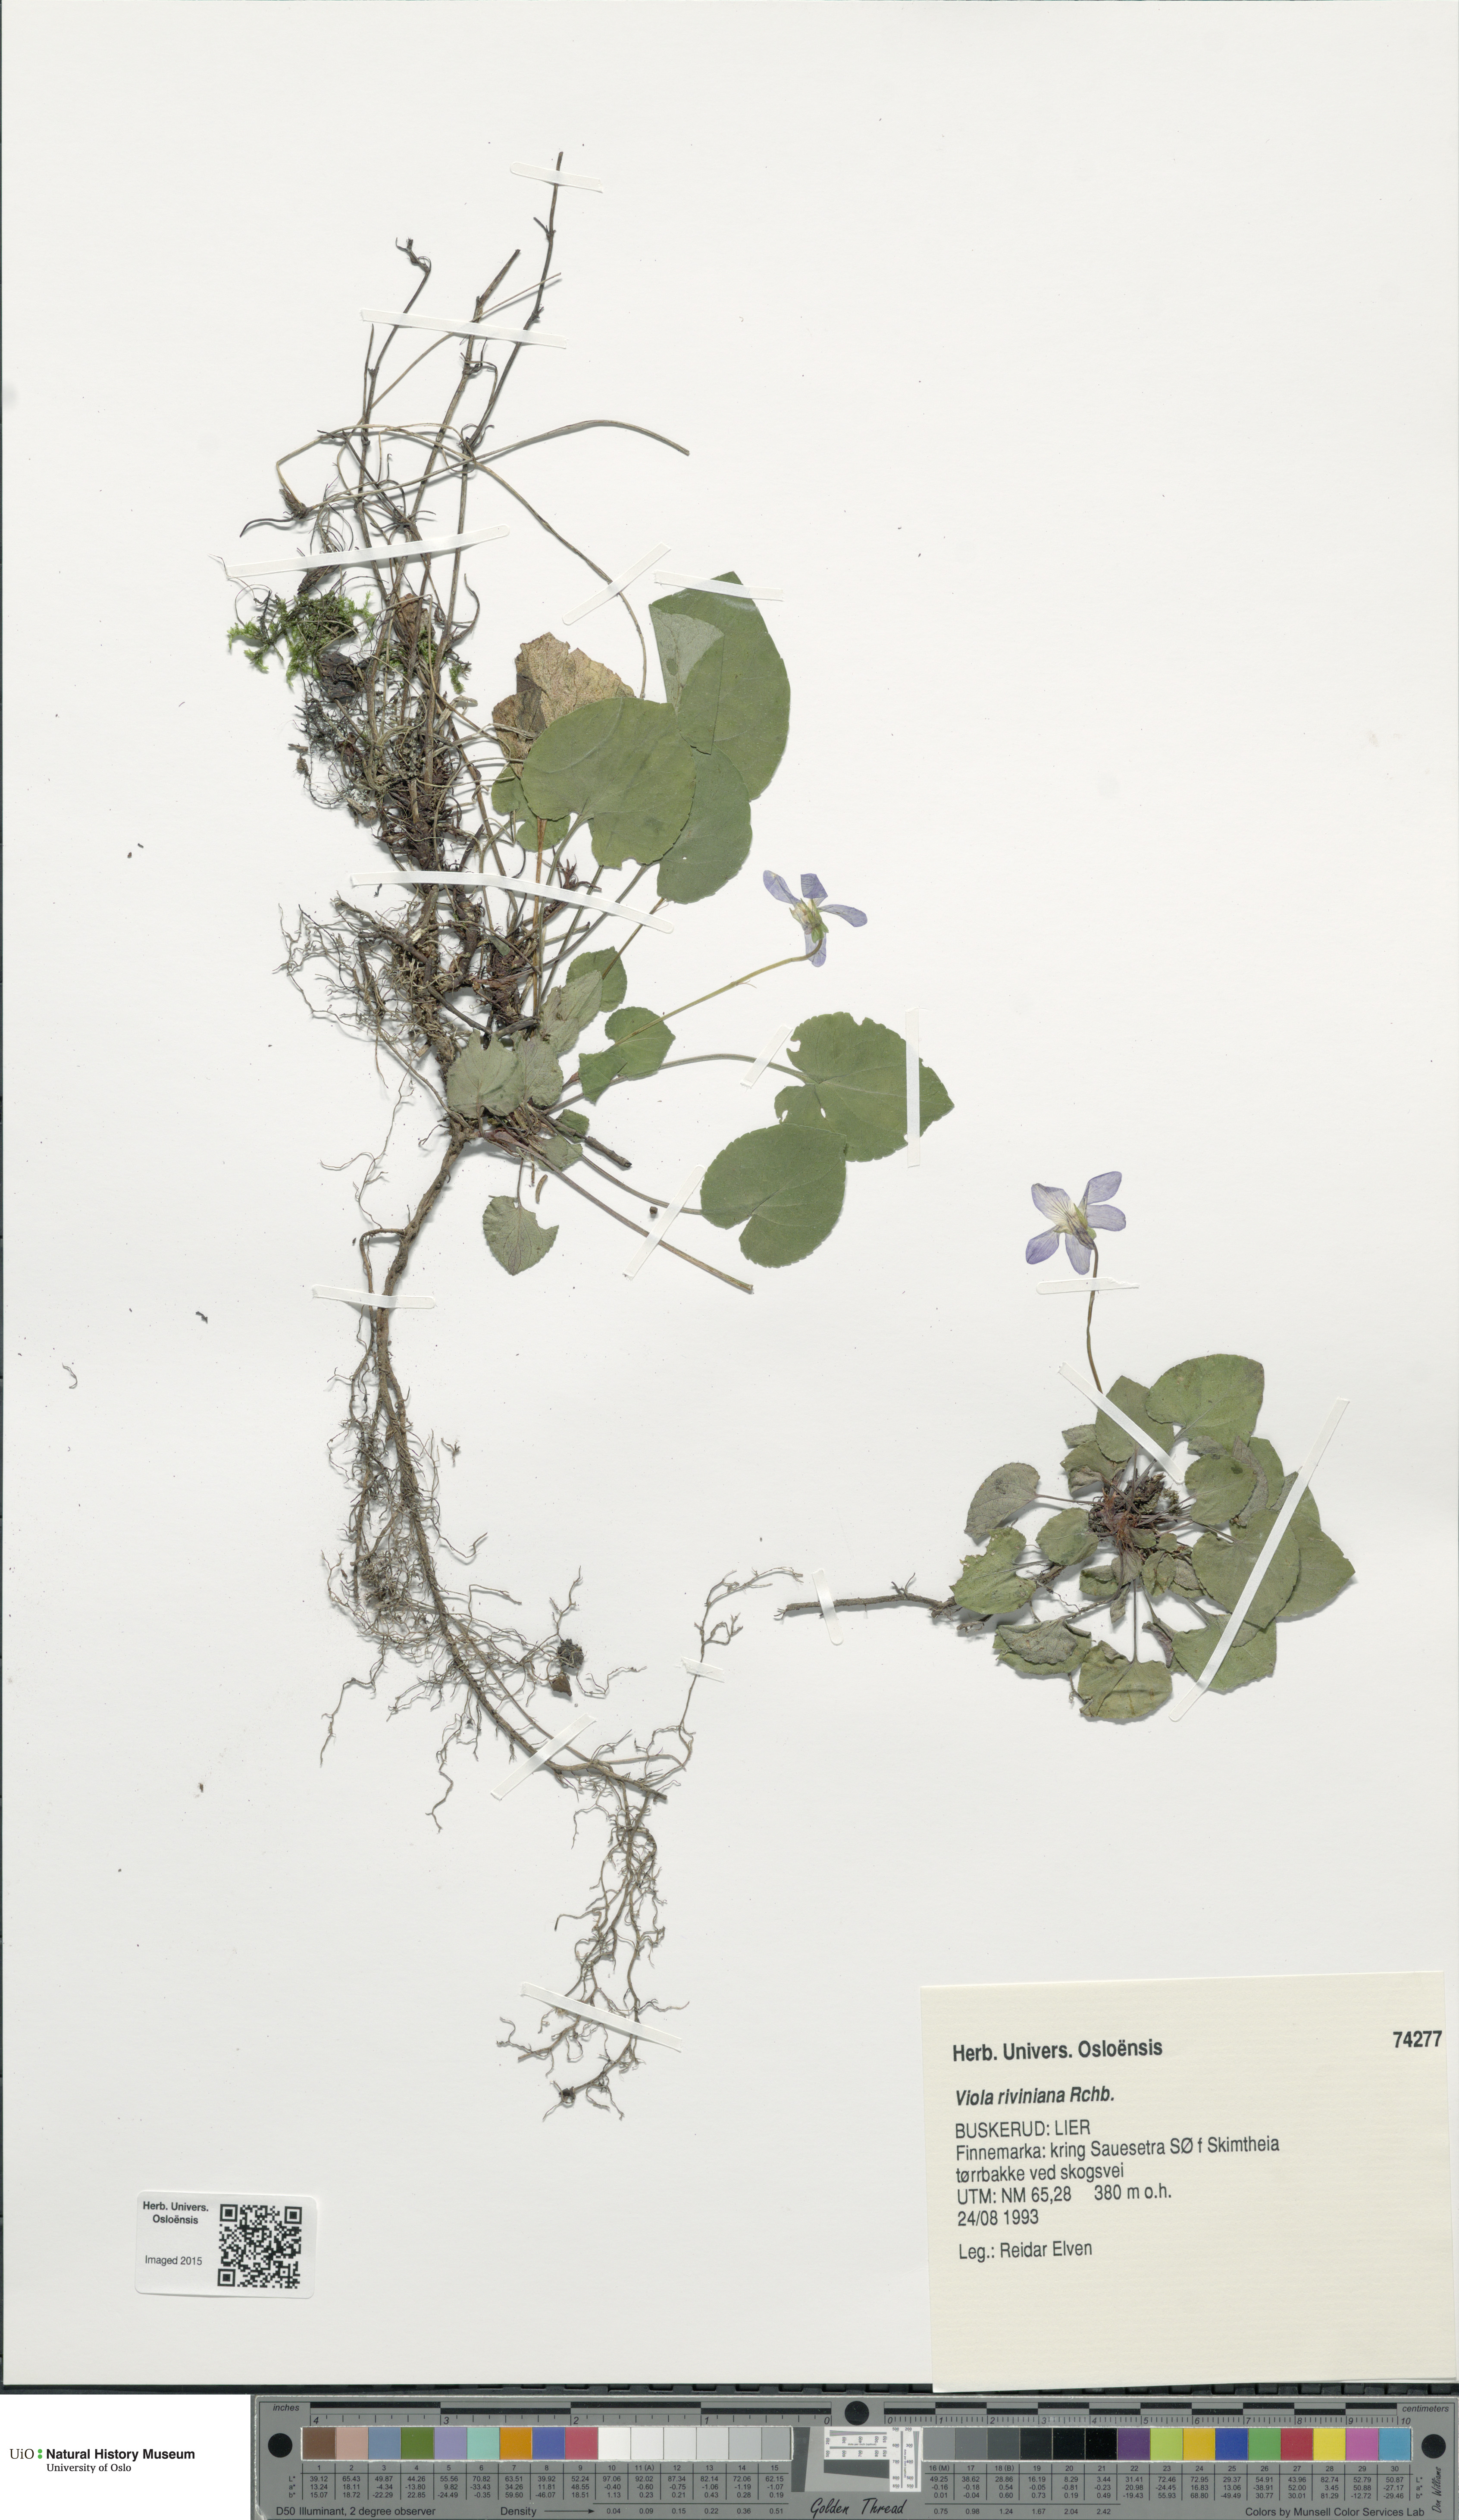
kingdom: Plantae
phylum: Tracheophyta
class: Magnoliopsida
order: Malpighiales
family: Violaceae
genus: Viola
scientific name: Viola riviniana
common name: Common dog-violet
